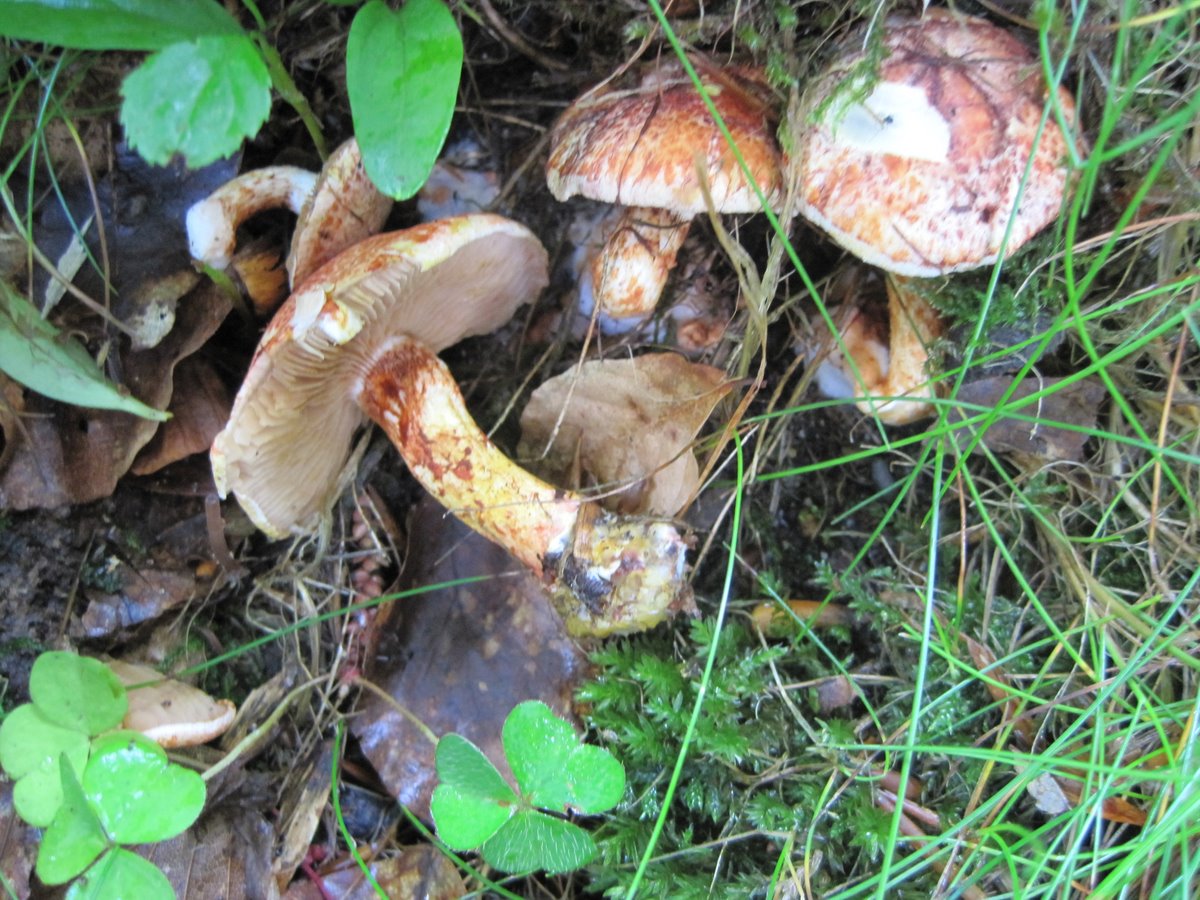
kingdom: Fungi
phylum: Basidiomycota
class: Agaricomycetes
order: Agaricales
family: Cortinariaceae
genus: Cortinarius
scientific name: Cortinarius bolaris
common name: cinnoberskællet slørhat
